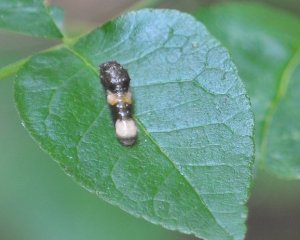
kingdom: Animalia
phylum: Arthropoda
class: Insecta
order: Lepidoptera
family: Papilionidae
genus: Papilio
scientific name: Papilio cresphontes
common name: Eastern Giant Swallowtail
